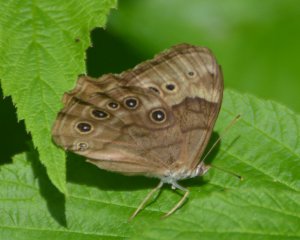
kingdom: Animalia
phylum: Arthropoda
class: Insecta
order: Lepidoptera
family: Nymphalidae
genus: Lethe
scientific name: Lethe anthedon
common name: Northern Pearly-Eye
